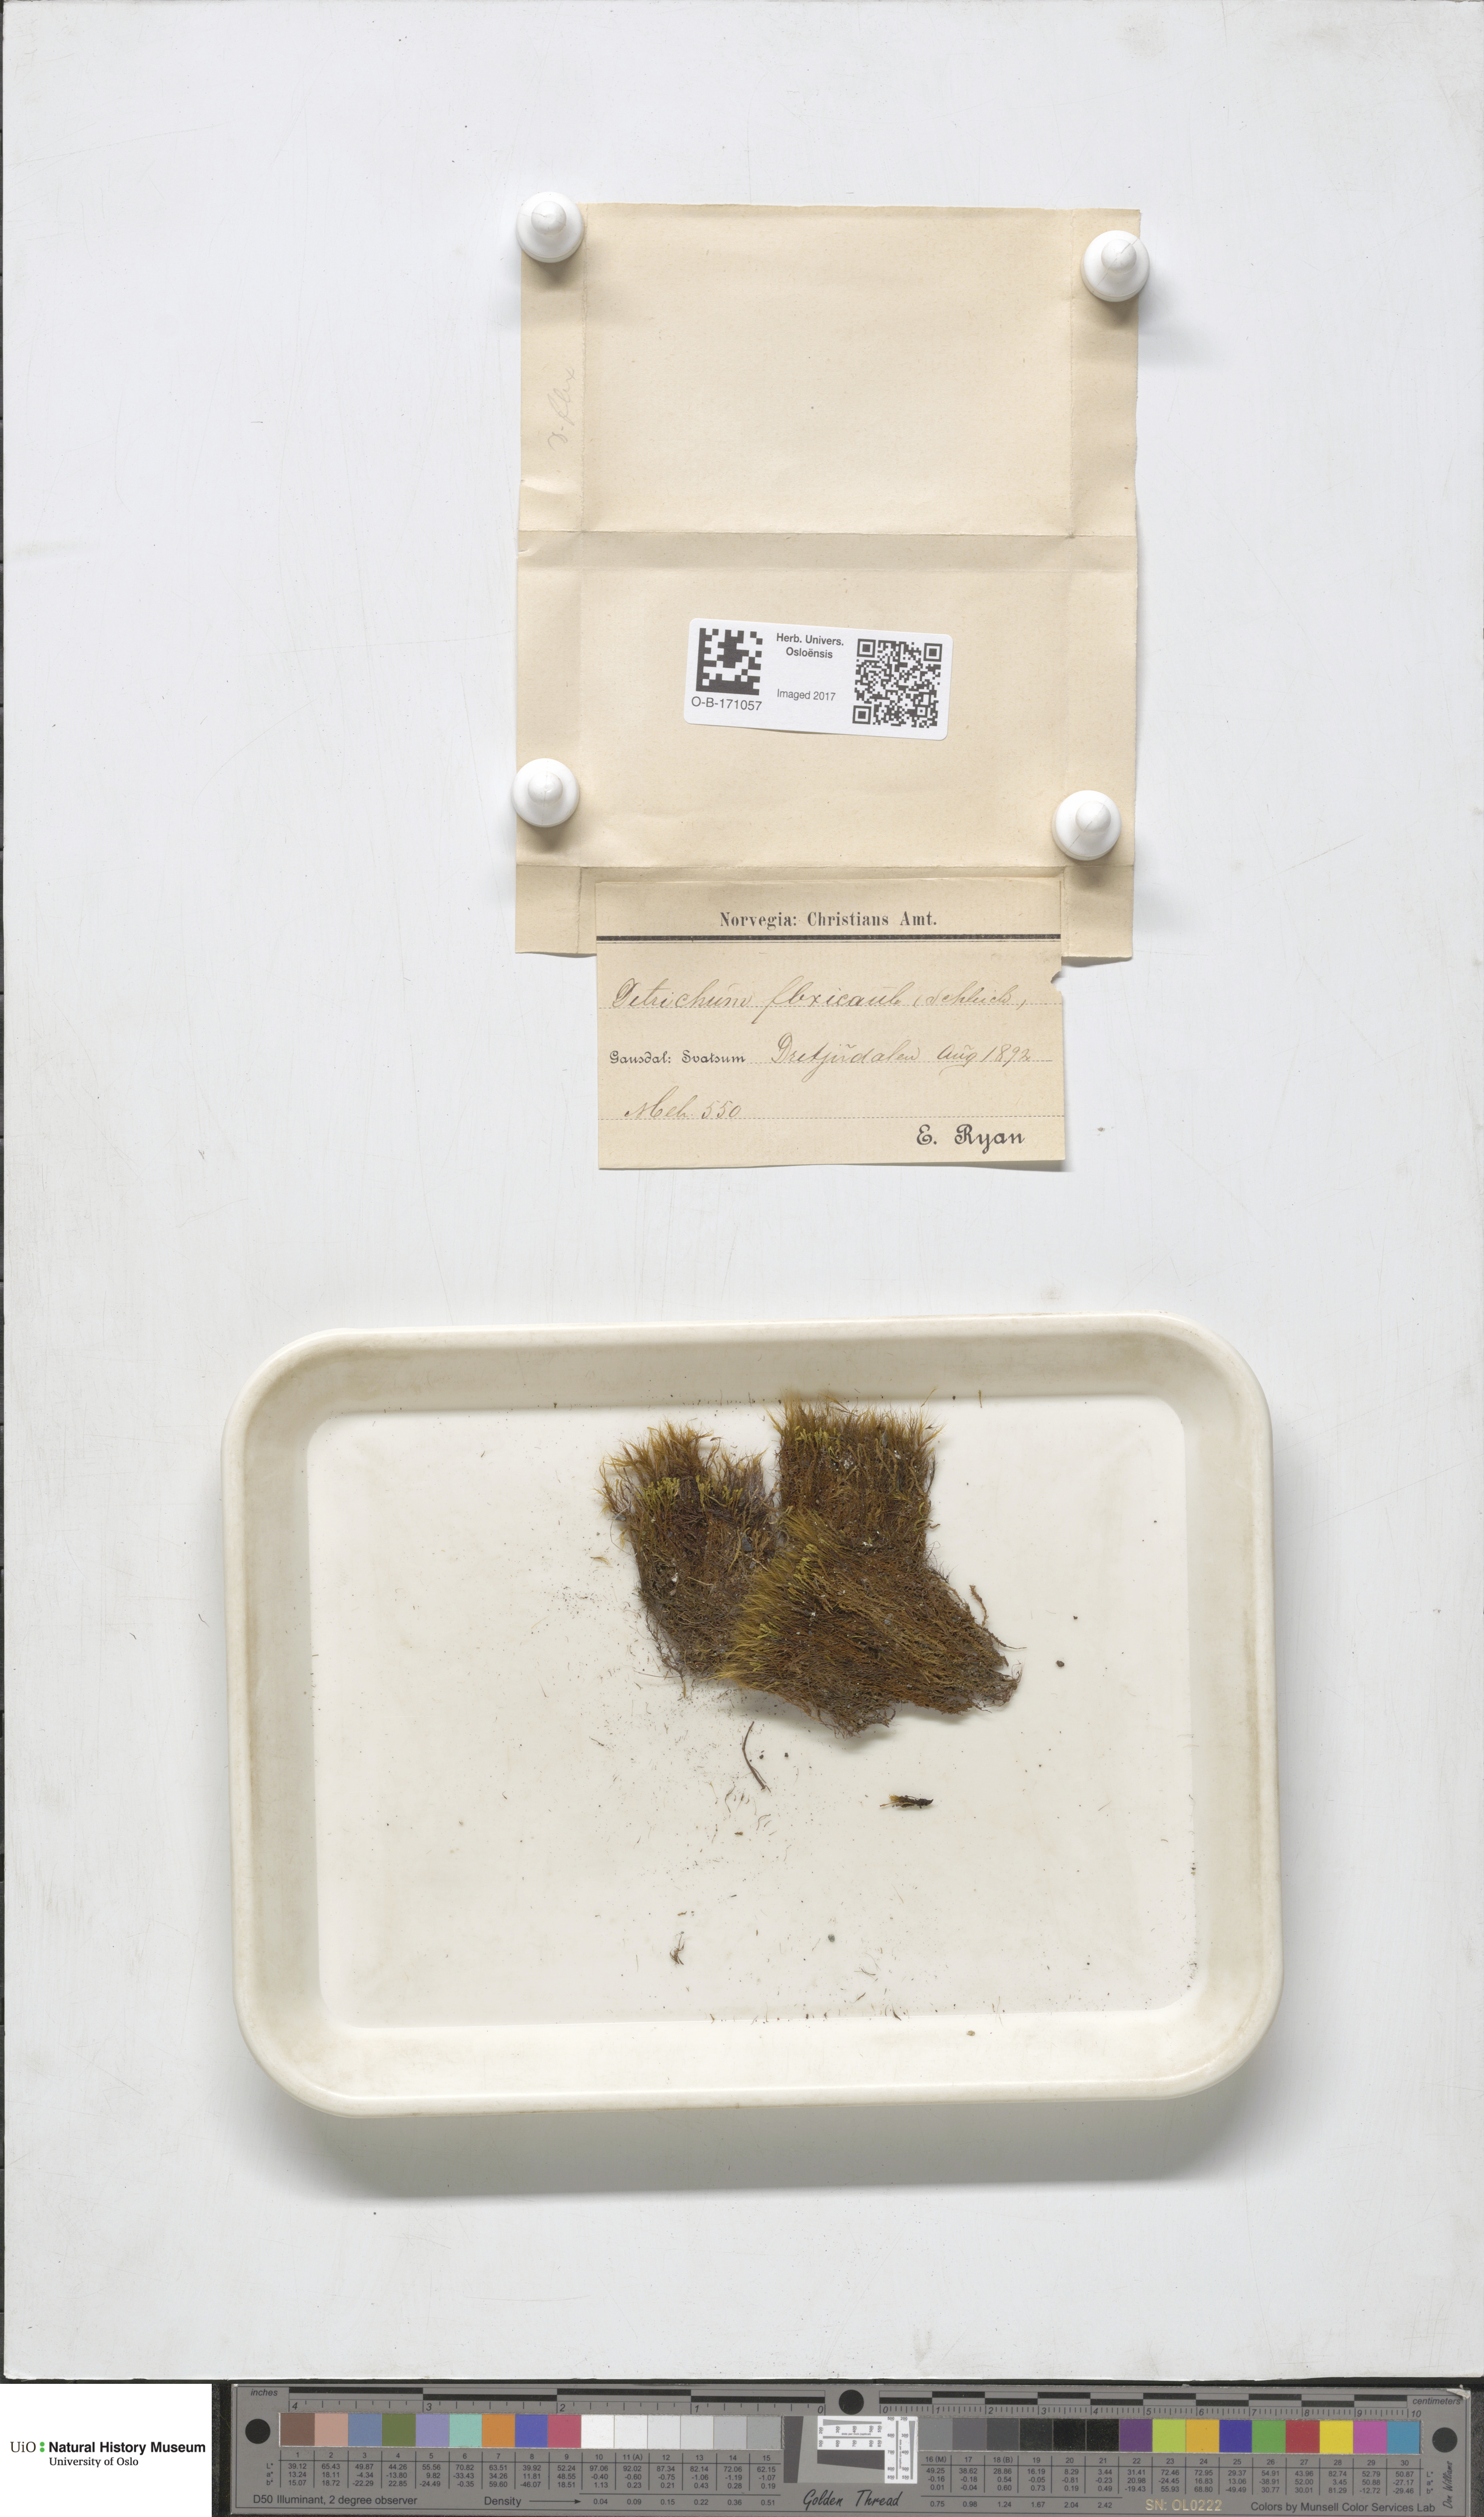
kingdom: Plantae
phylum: Bryophyta
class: Bryopsida
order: Scouleriales
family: Flexitrichaceae
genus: Flexitrichum
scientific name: Flexitrichum flexicaule
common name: Bendy ditrichum
